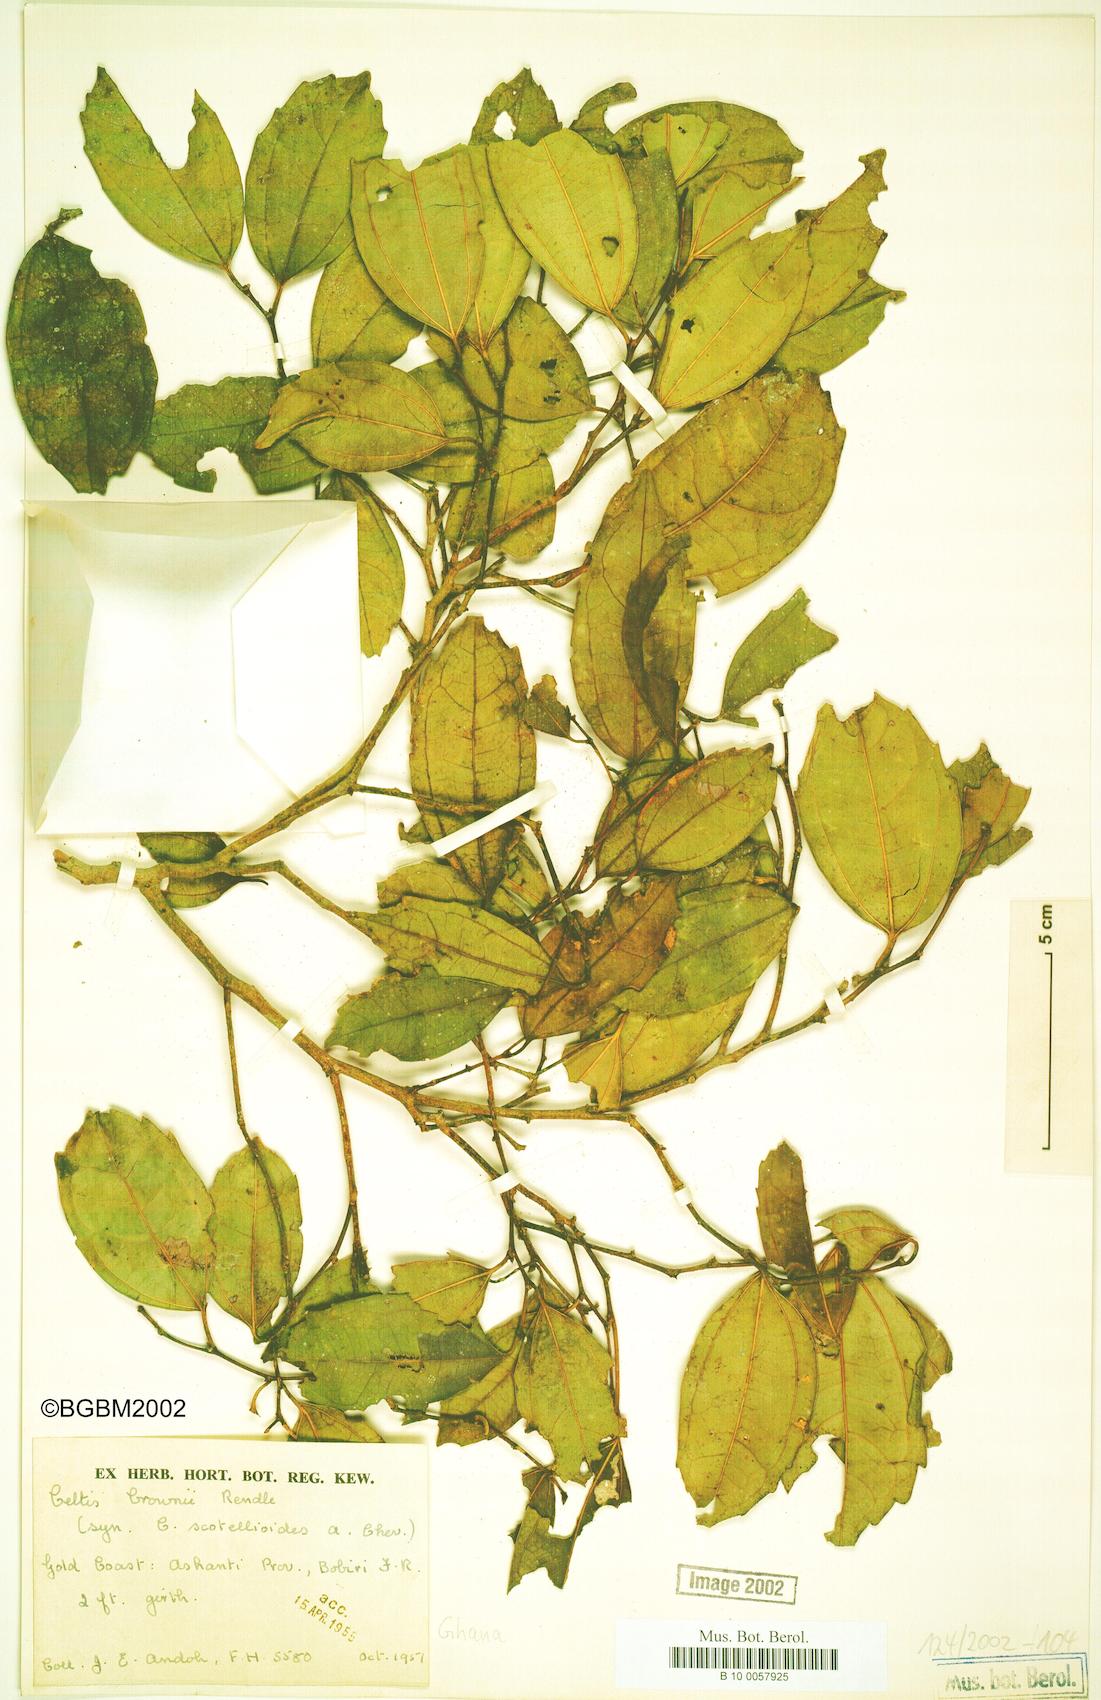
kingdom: Plantae
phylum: Tracheophyta
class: Magnoliopsida
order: Rosales
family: Cannabaceae
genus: Celtis
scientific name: Celtis
